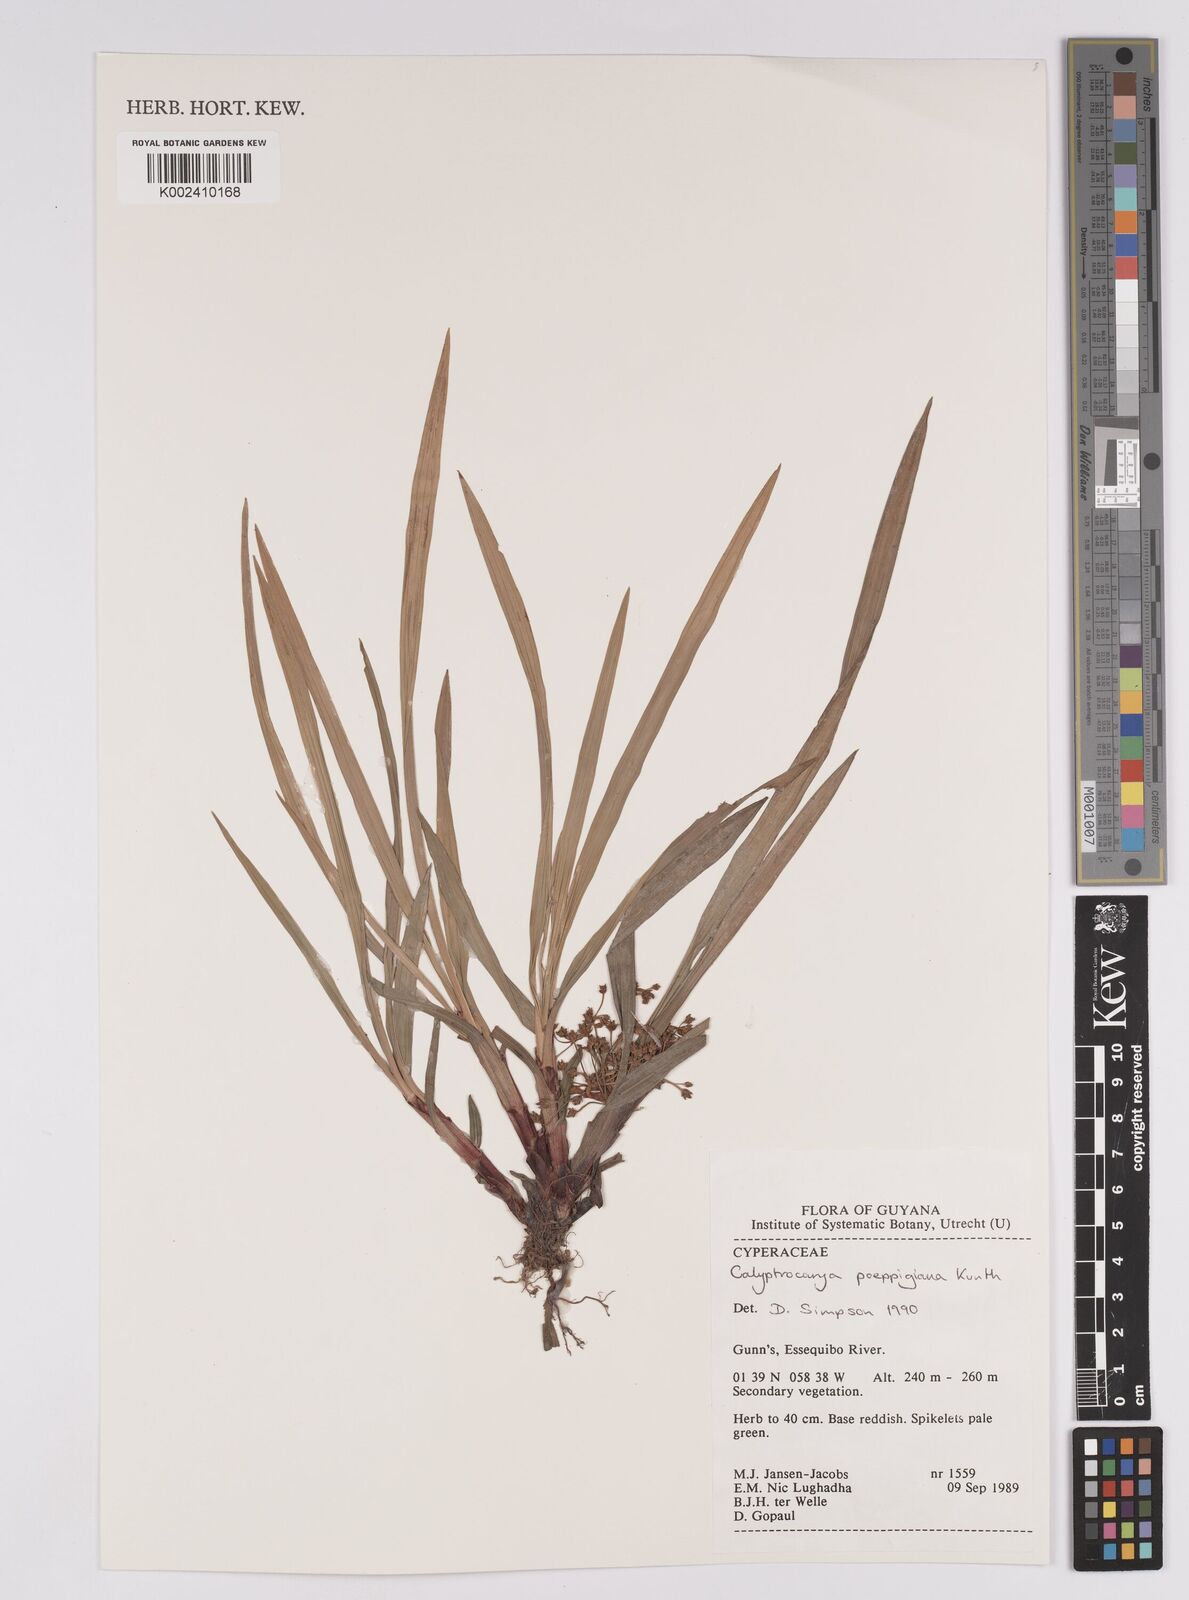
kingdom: Plantae
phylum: Tracheophyta
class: Liliopsida
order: Poales
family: Cyperaceae
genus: Calyptrocarya
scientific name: Calyptrocarya poeppigiana
